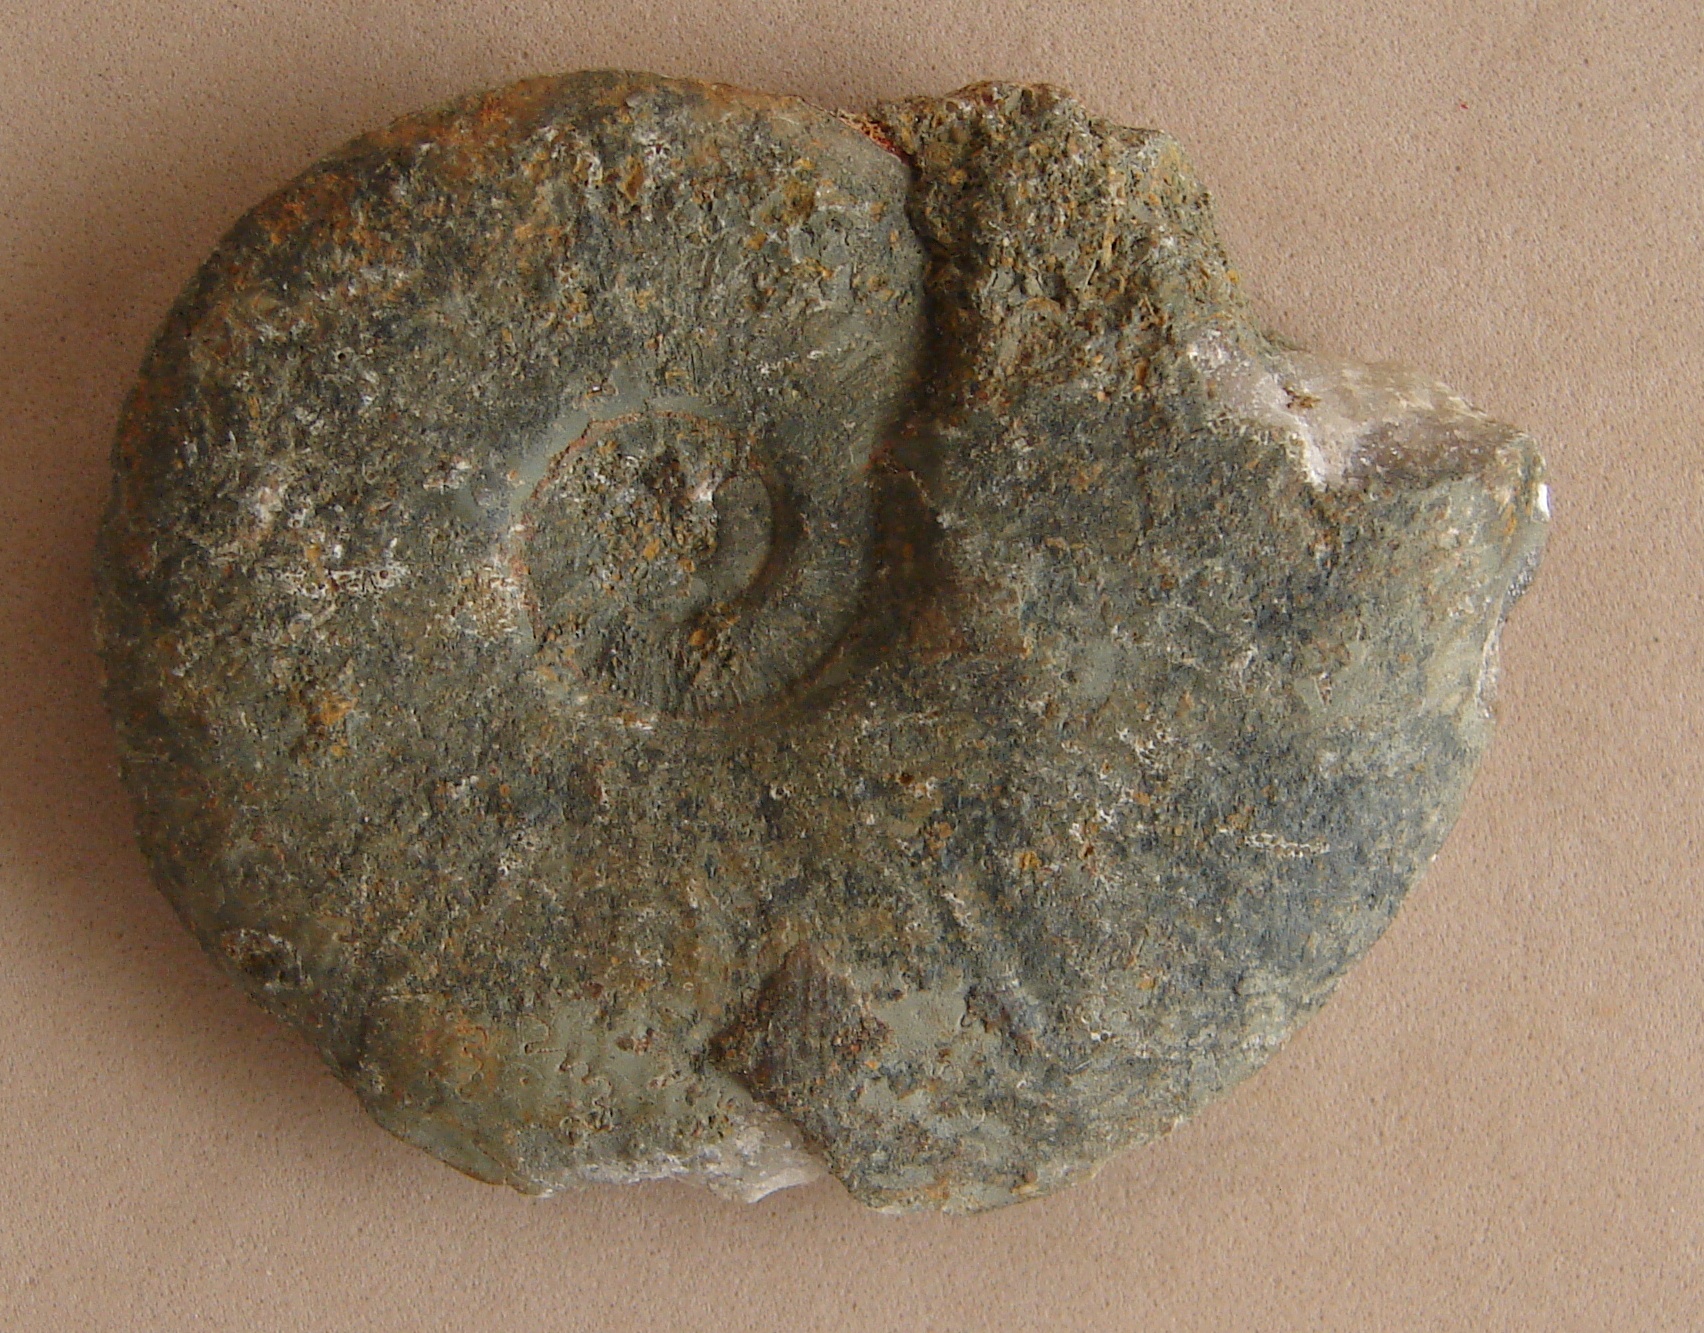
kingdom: Animalia
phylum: Mollusca
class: Cephalopoda
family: Hildoceratidae
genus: Pleydellia
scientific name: Pleydellia buckmani
